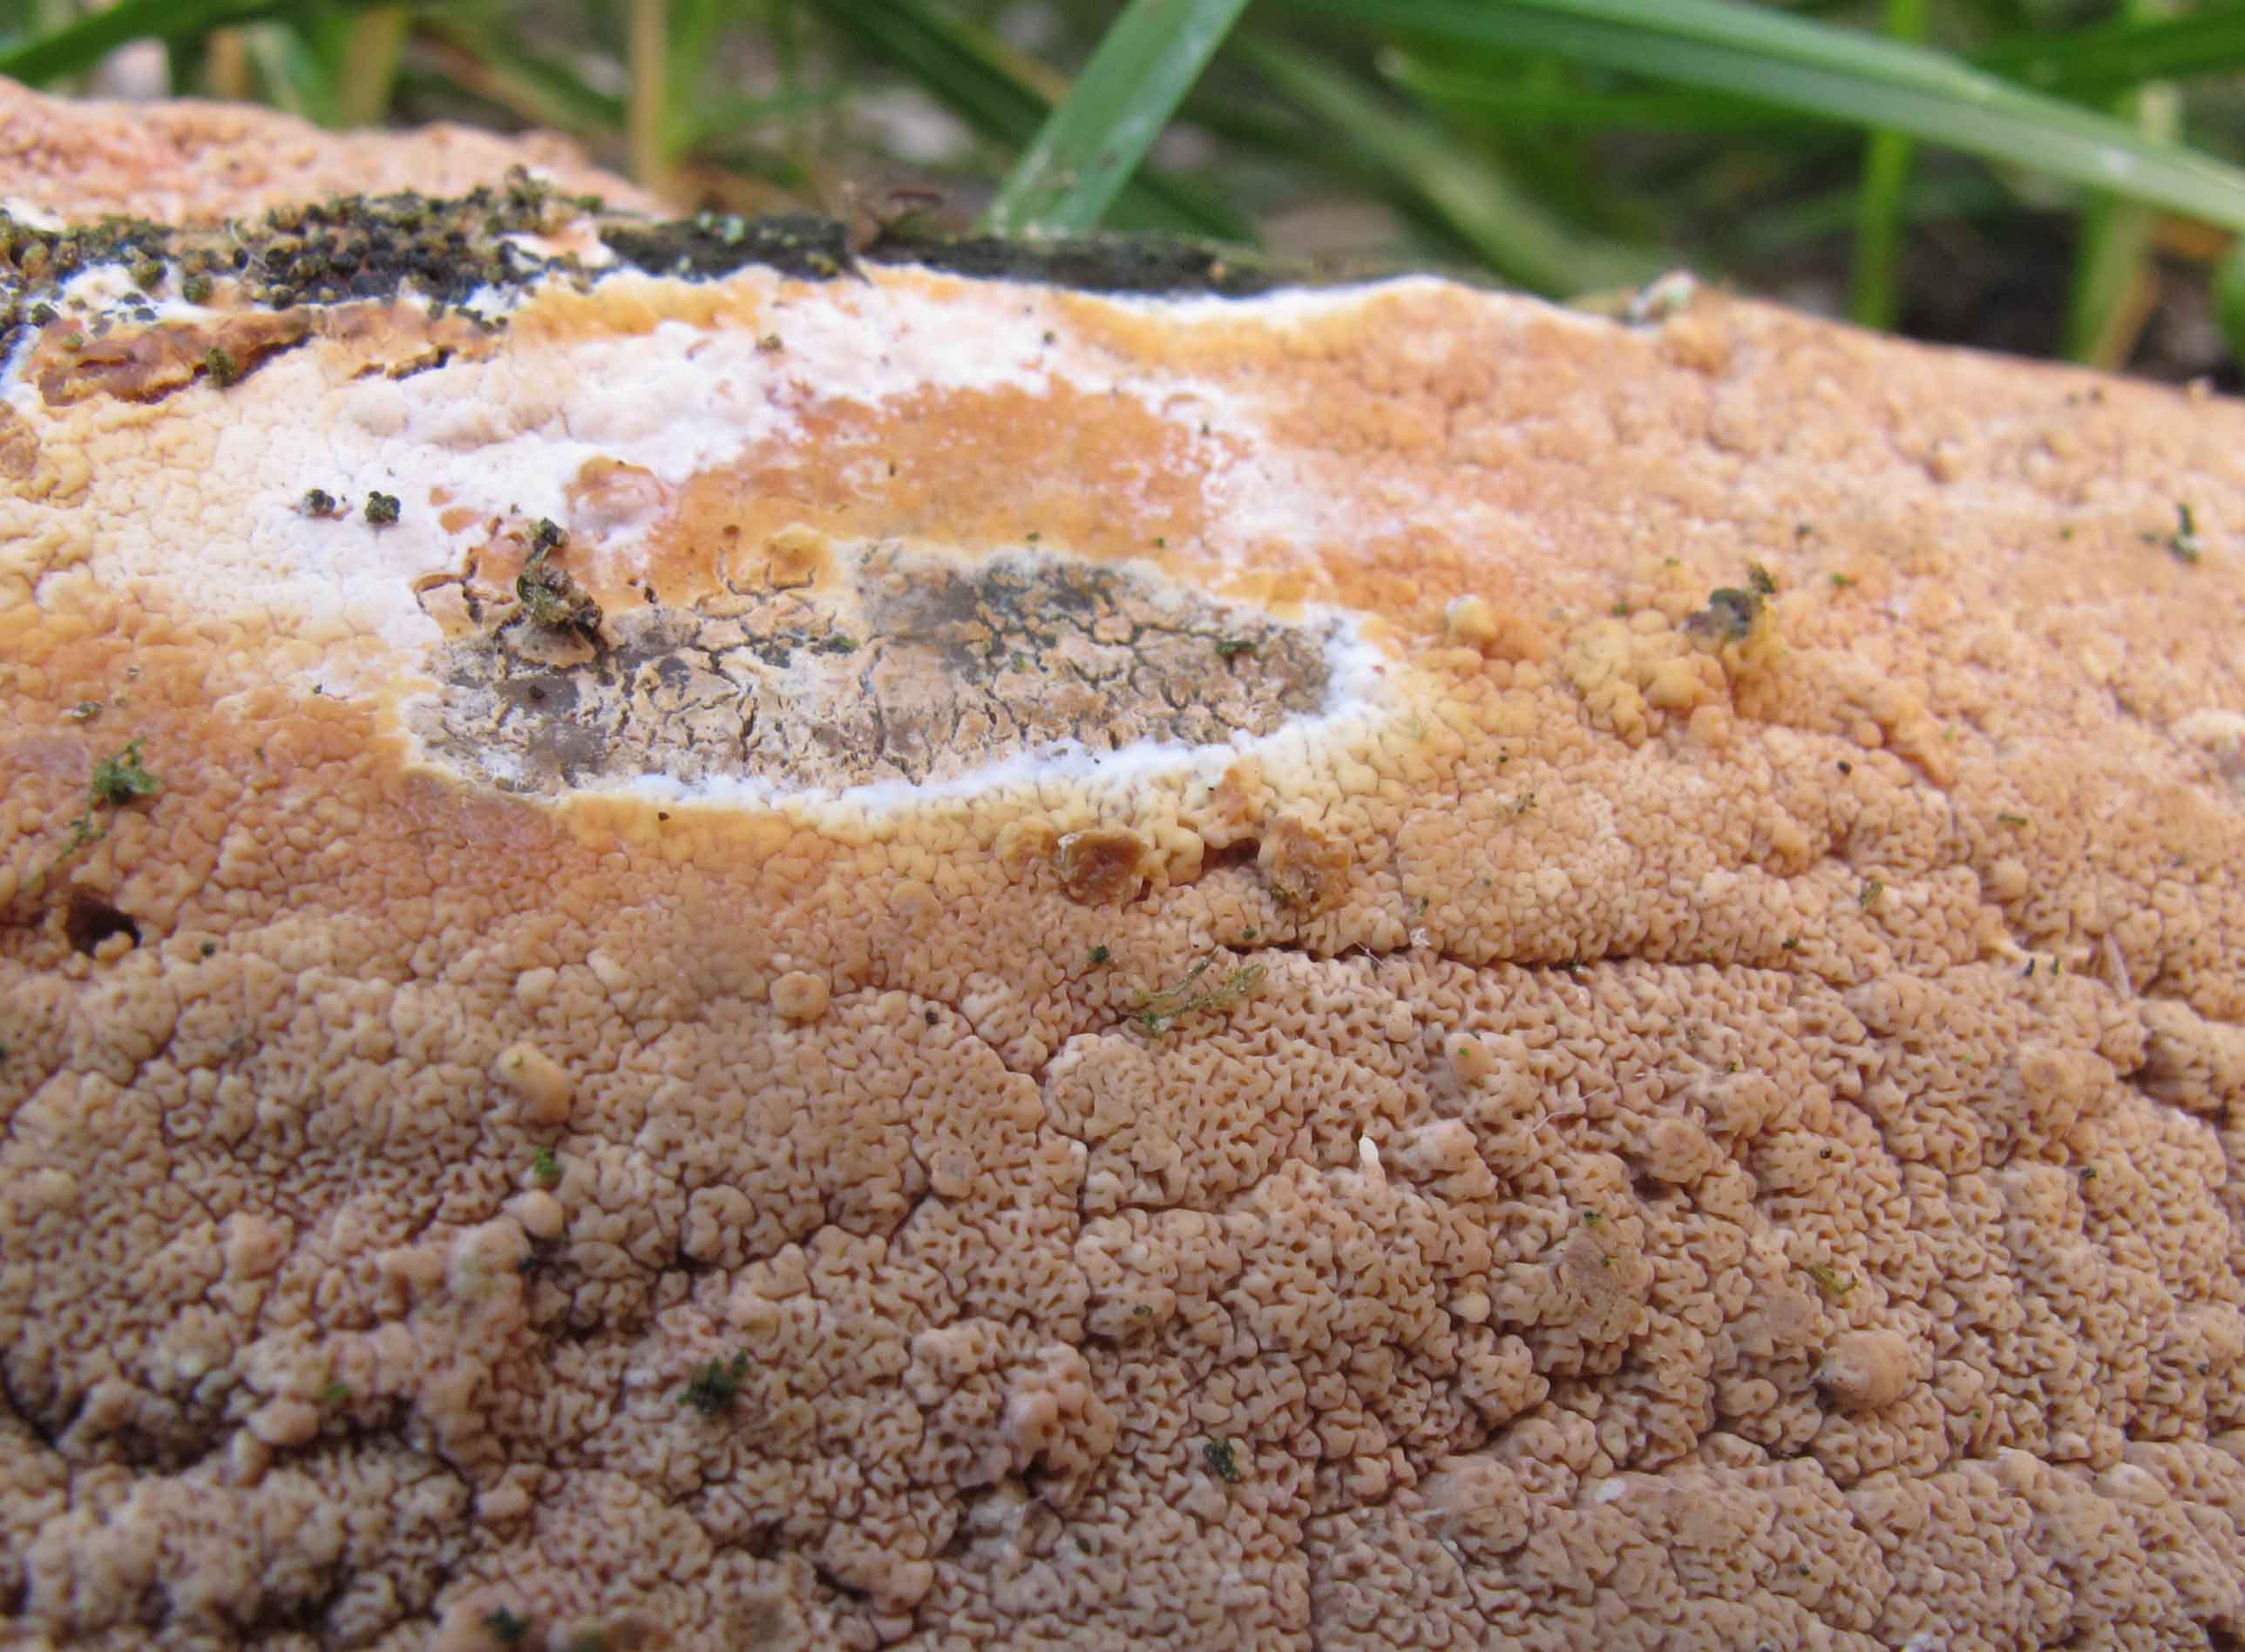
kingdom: Fungi
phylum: Basidiomycota
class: Agaricomycetes
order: Polyporales
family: Irpicaceae
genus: Crystallicutis
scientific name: Crystallicutis serpens
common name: gråviolet barkhinde
